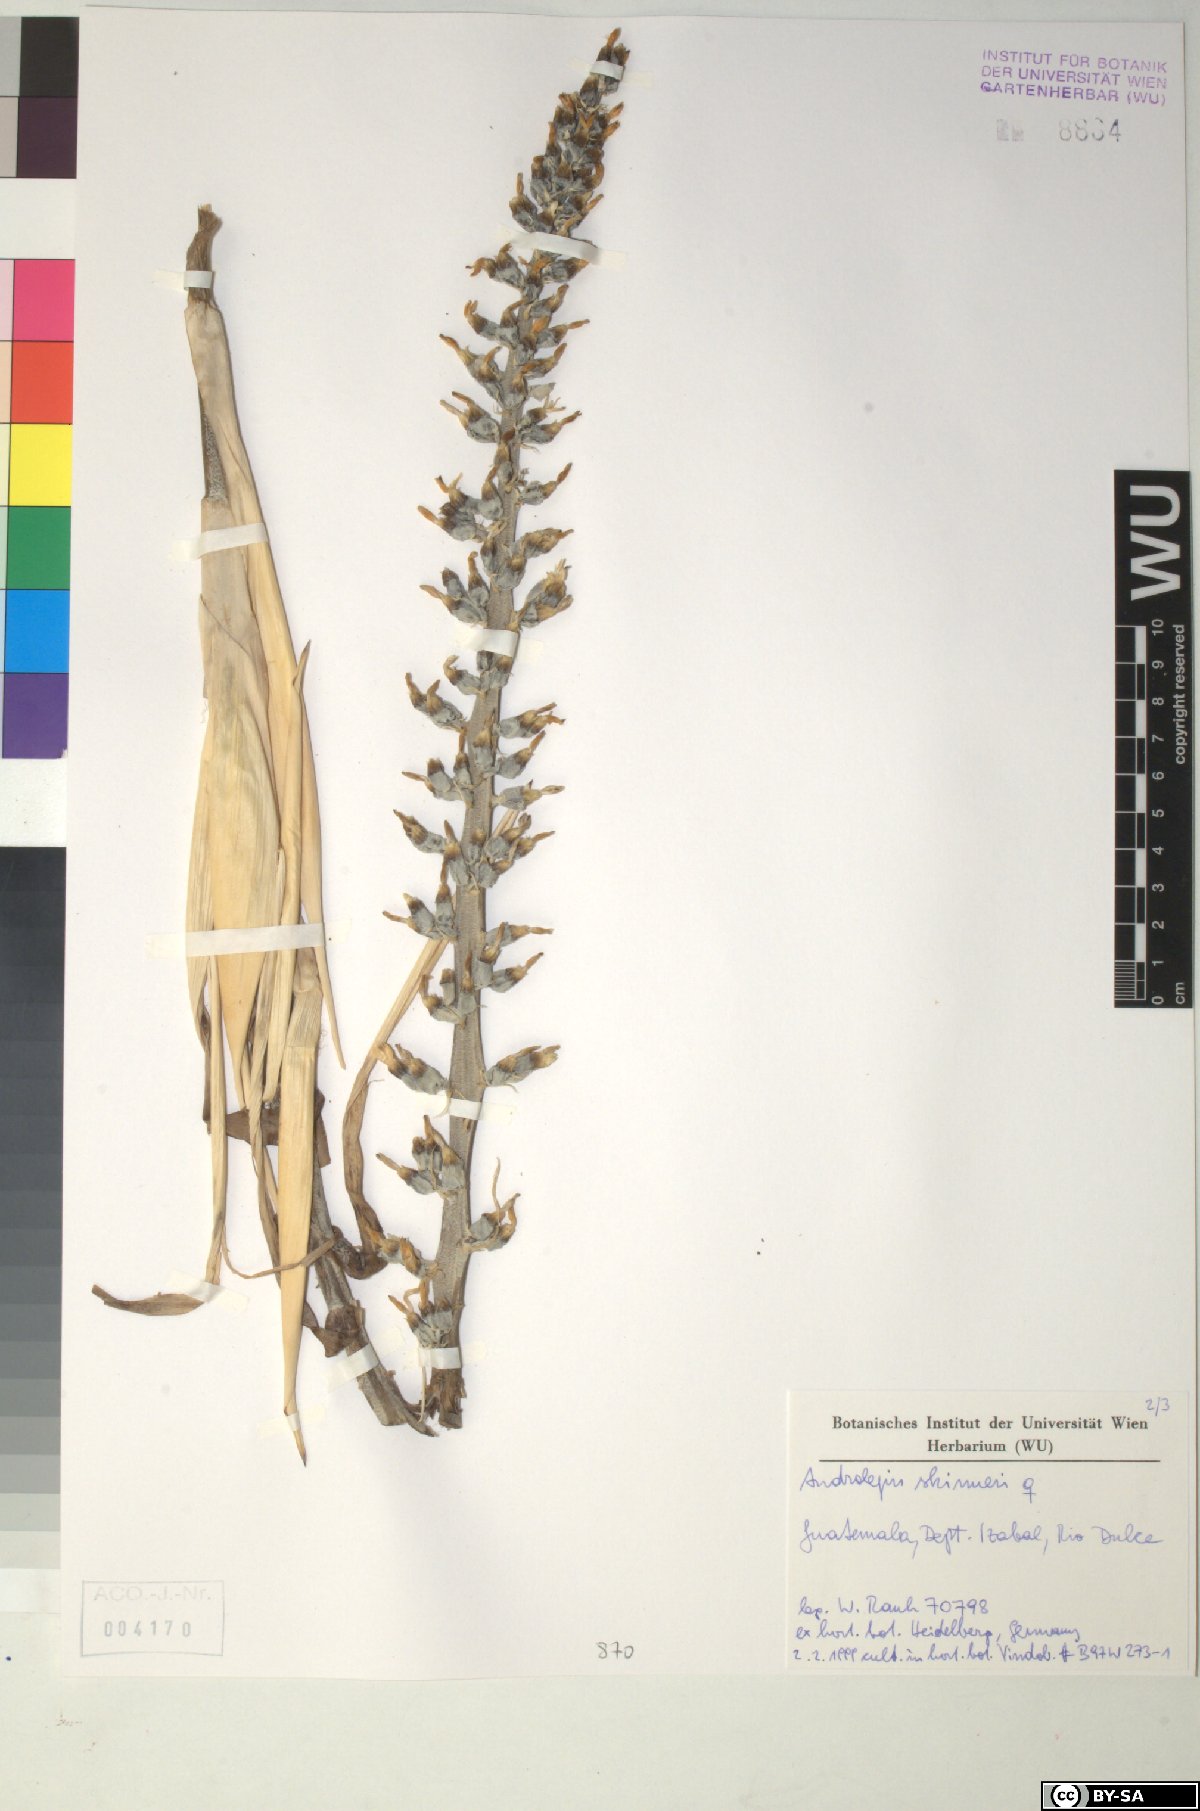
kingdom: Plantae
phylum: Tracheophyta
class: Liliopsida
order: Poales
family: Bromeliaceae
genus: Androlepis
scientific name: Androlepis skinneri
